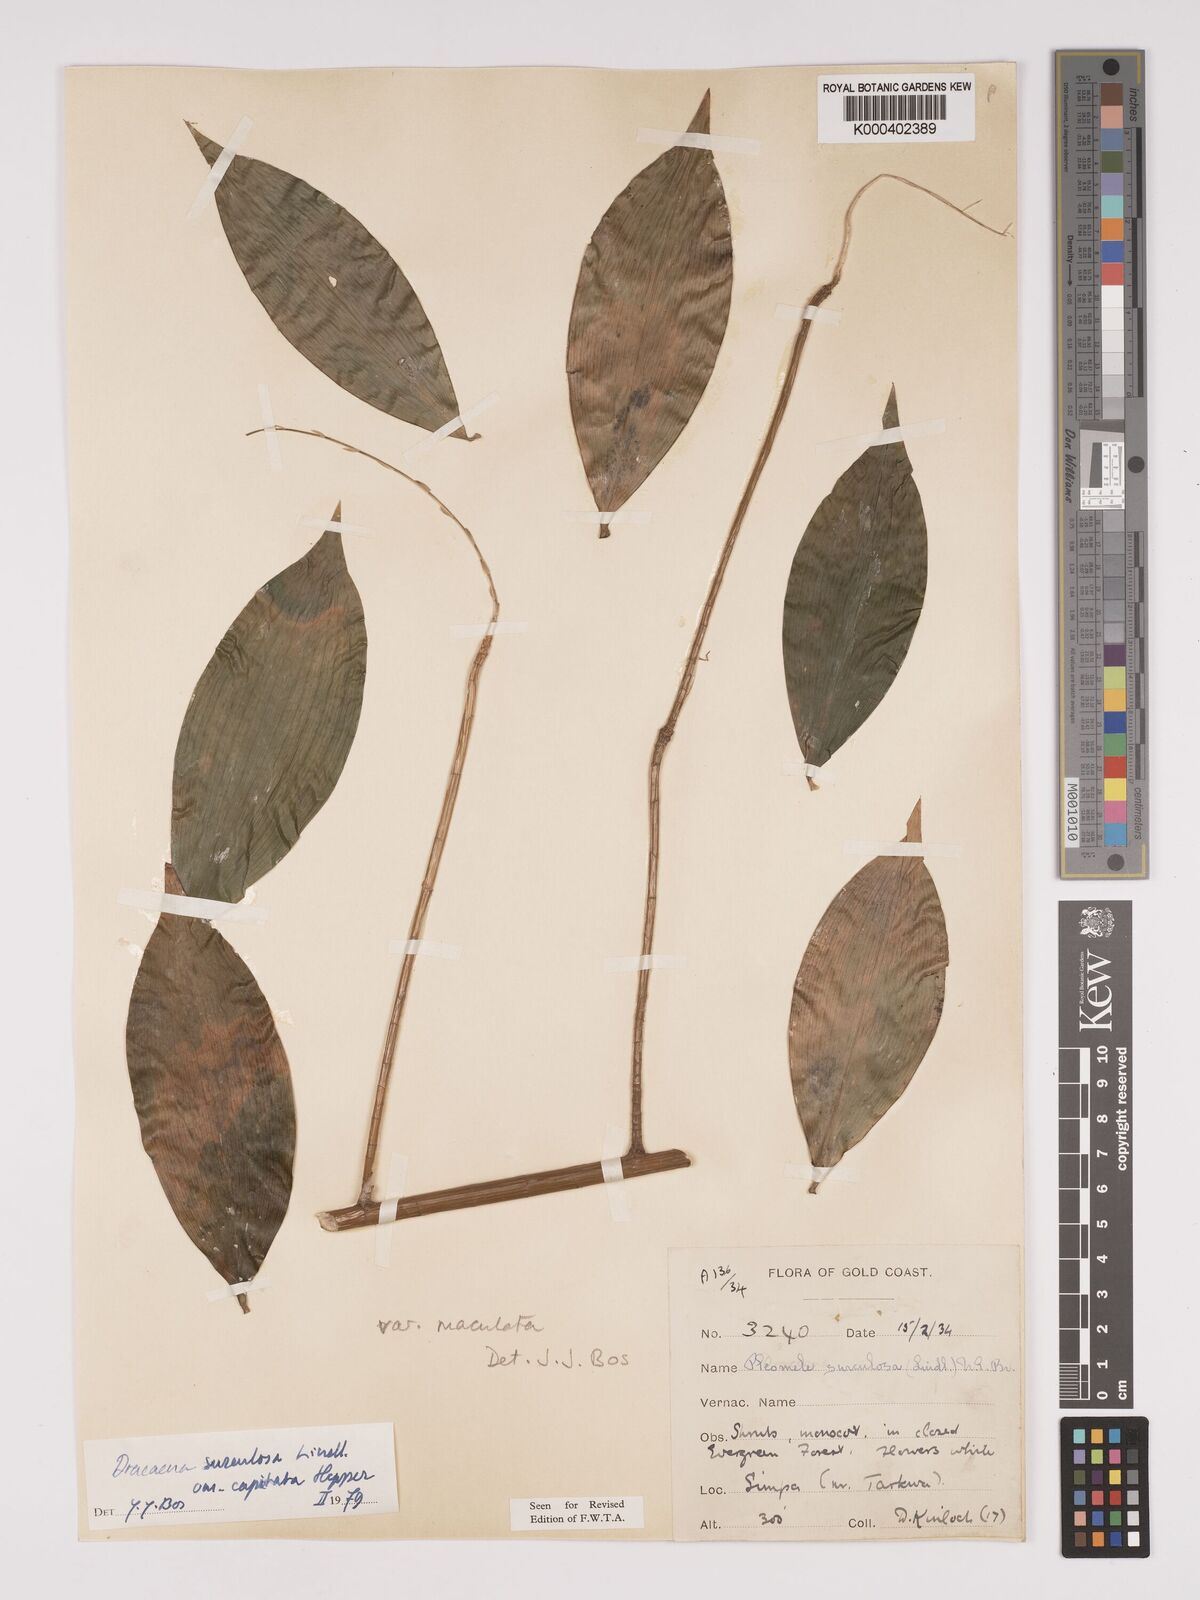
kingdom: Plantae
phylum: Tracheophyta
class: Liliopsida
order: Asparagales
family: Asparagaceae
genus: Dracaena
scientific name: Dracaena surculosa
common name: Spotted dracaena
